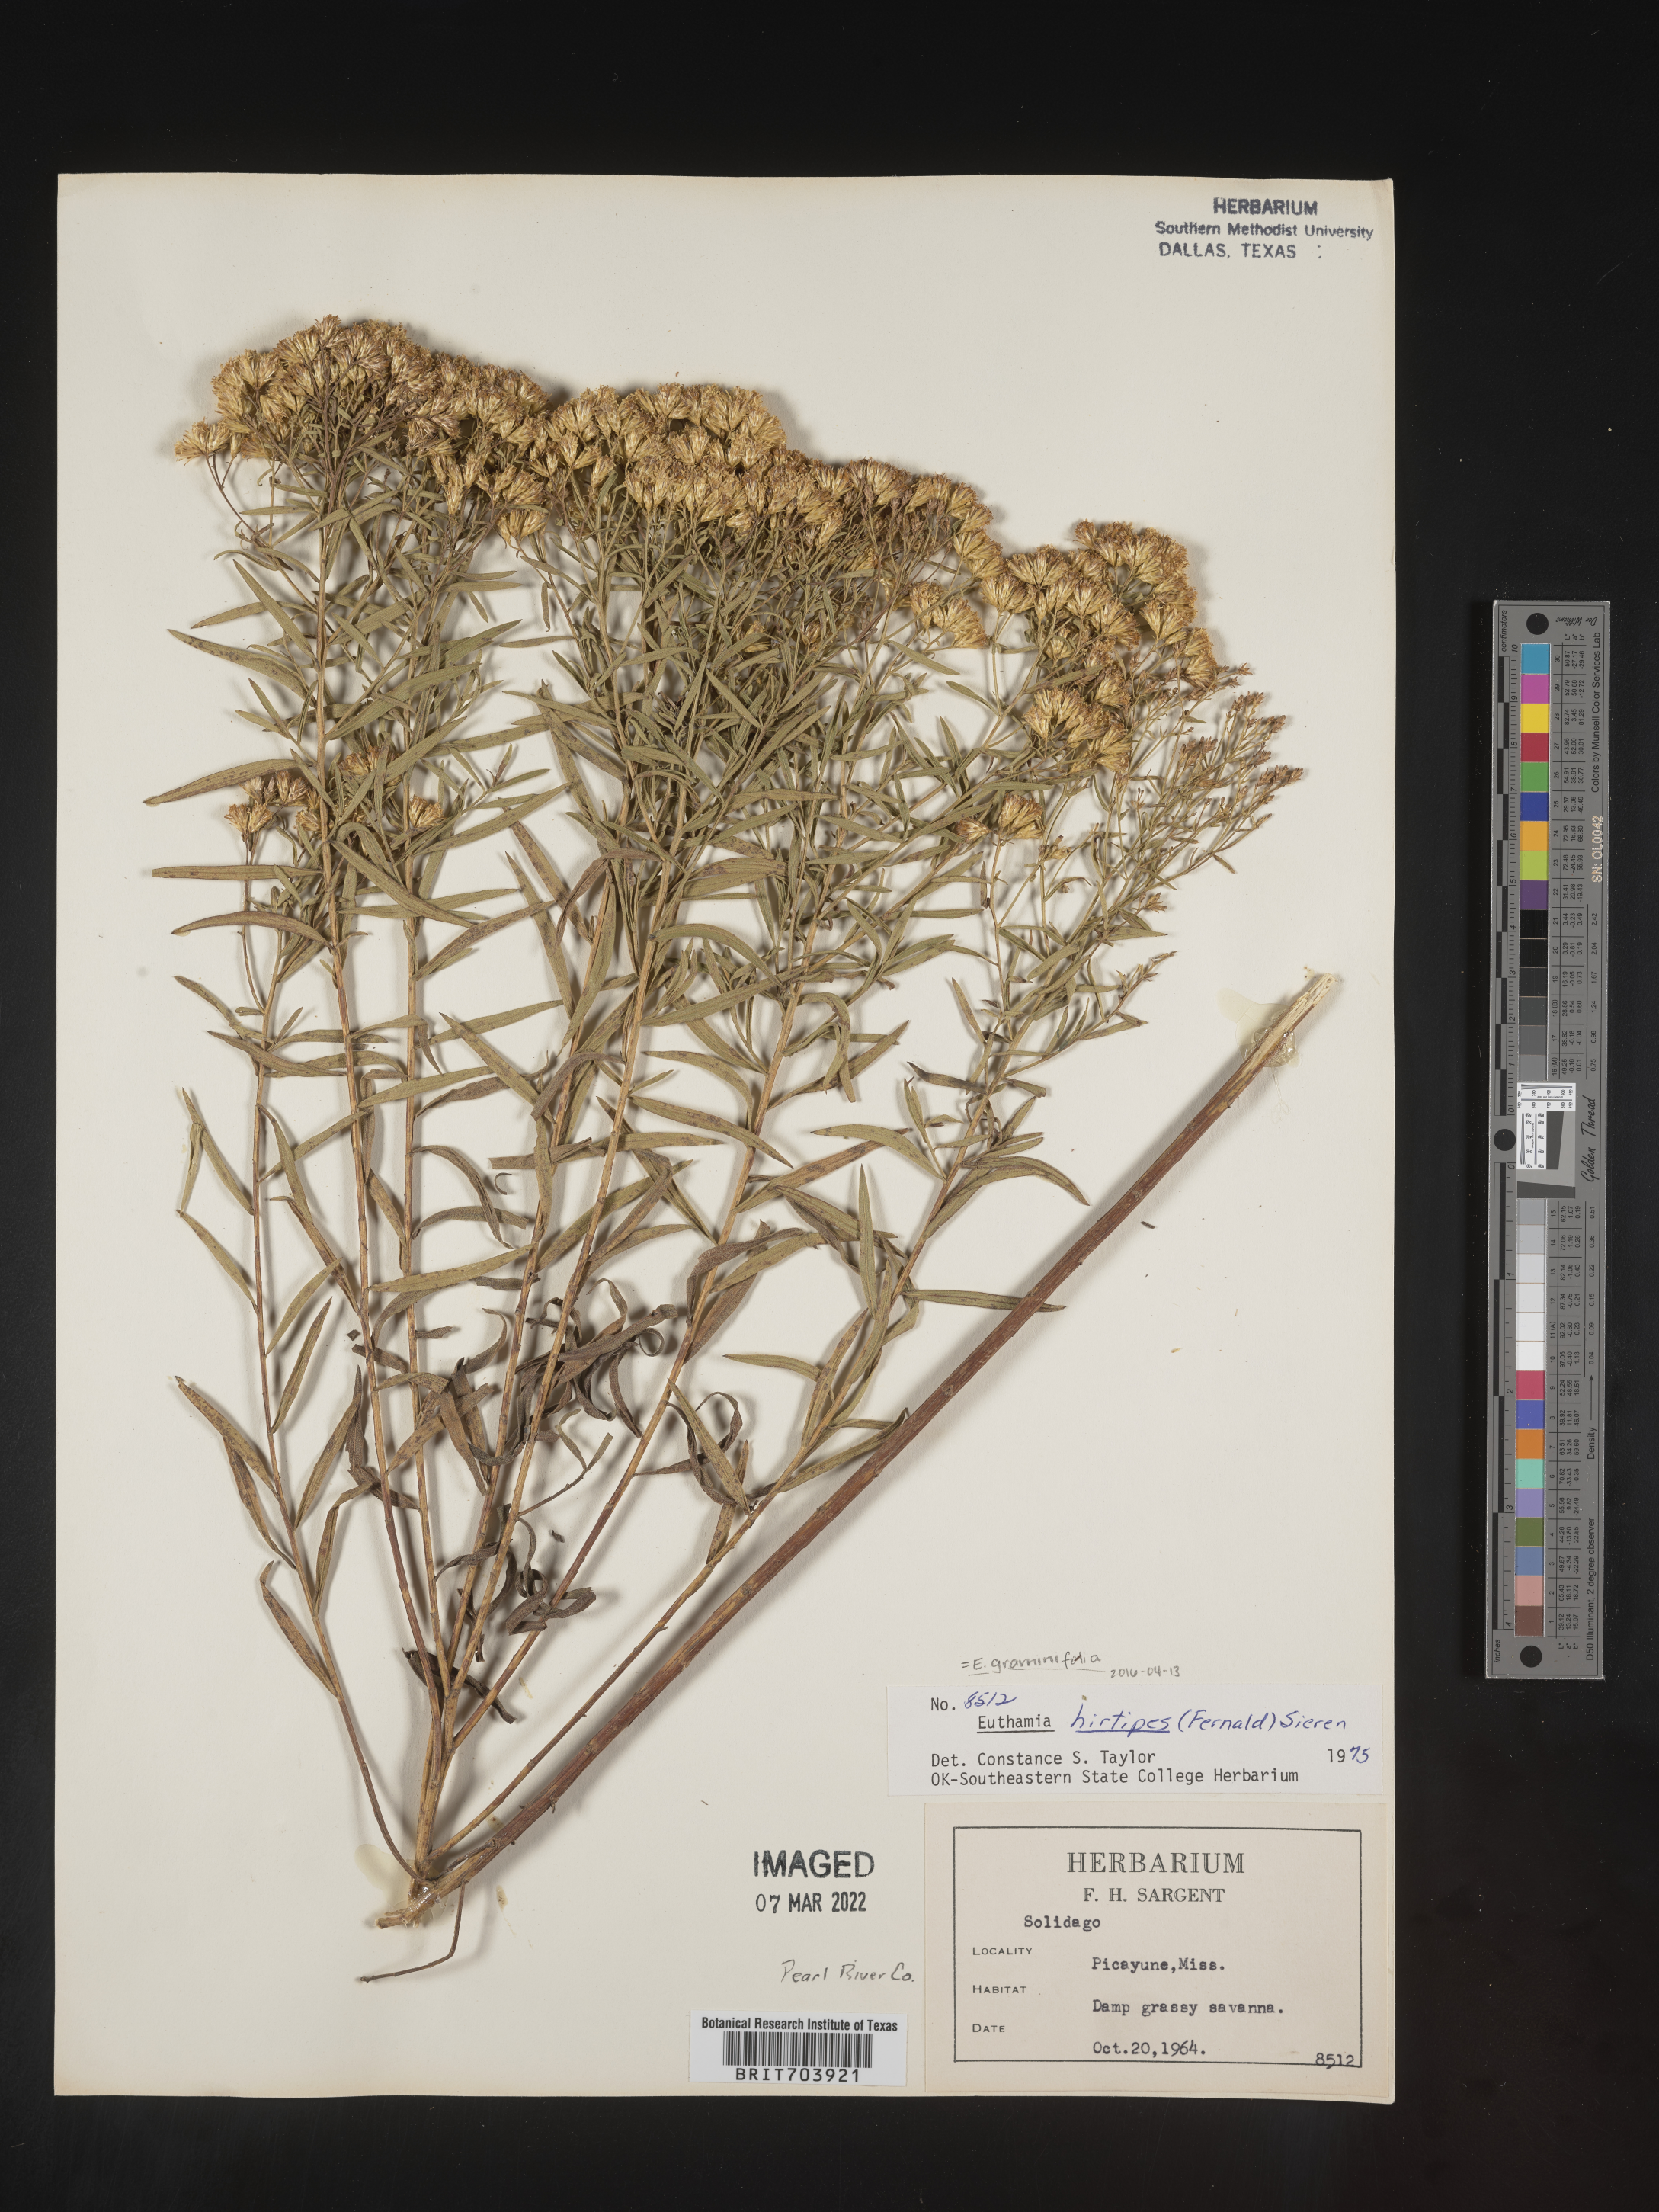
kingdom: Plantae
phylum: Tracheophyta
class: Magnoliopsida
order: Asterales
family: Asteraceae
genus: Euthamia
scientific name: Euthamia graminifolia
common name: Common goldentop
